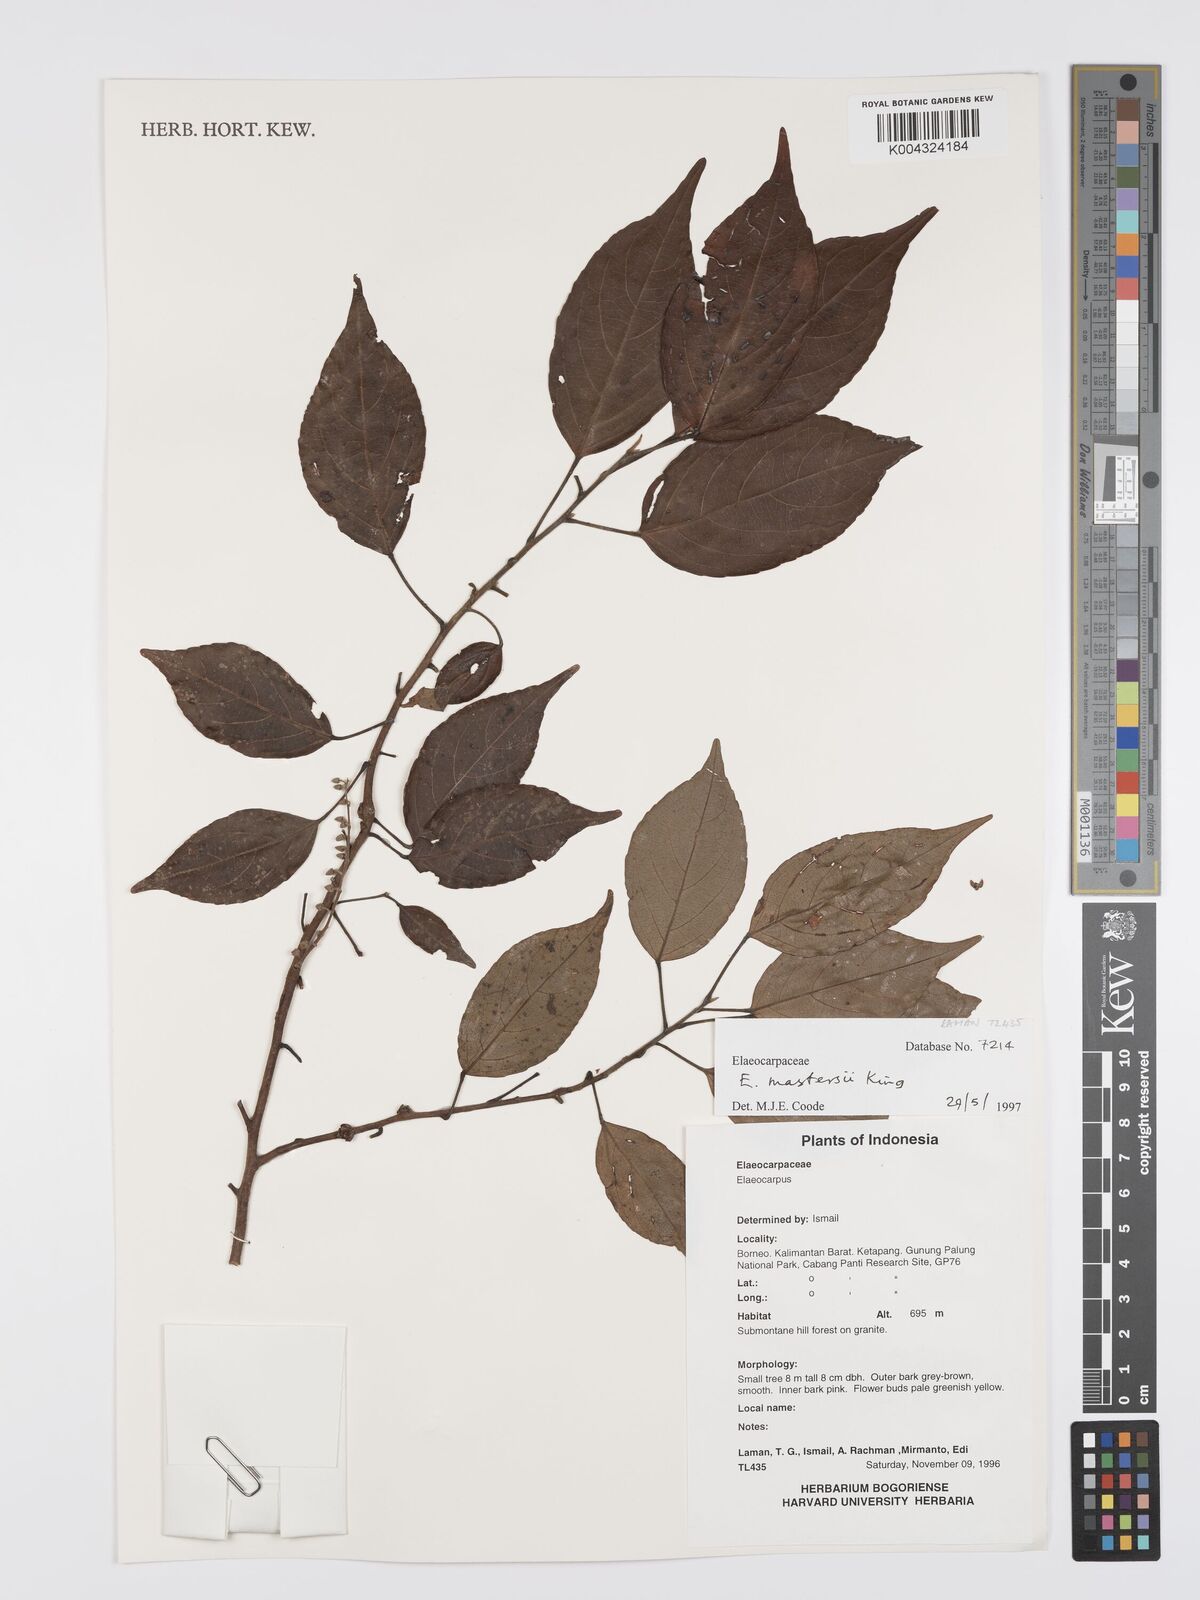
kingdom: Plantae
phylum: Tracheophyta
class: Magnoliopsida
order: Oxalidales
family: Elaeocarpaceae
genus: Elaeocarpus
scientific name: Elaeocarpus mastersii
